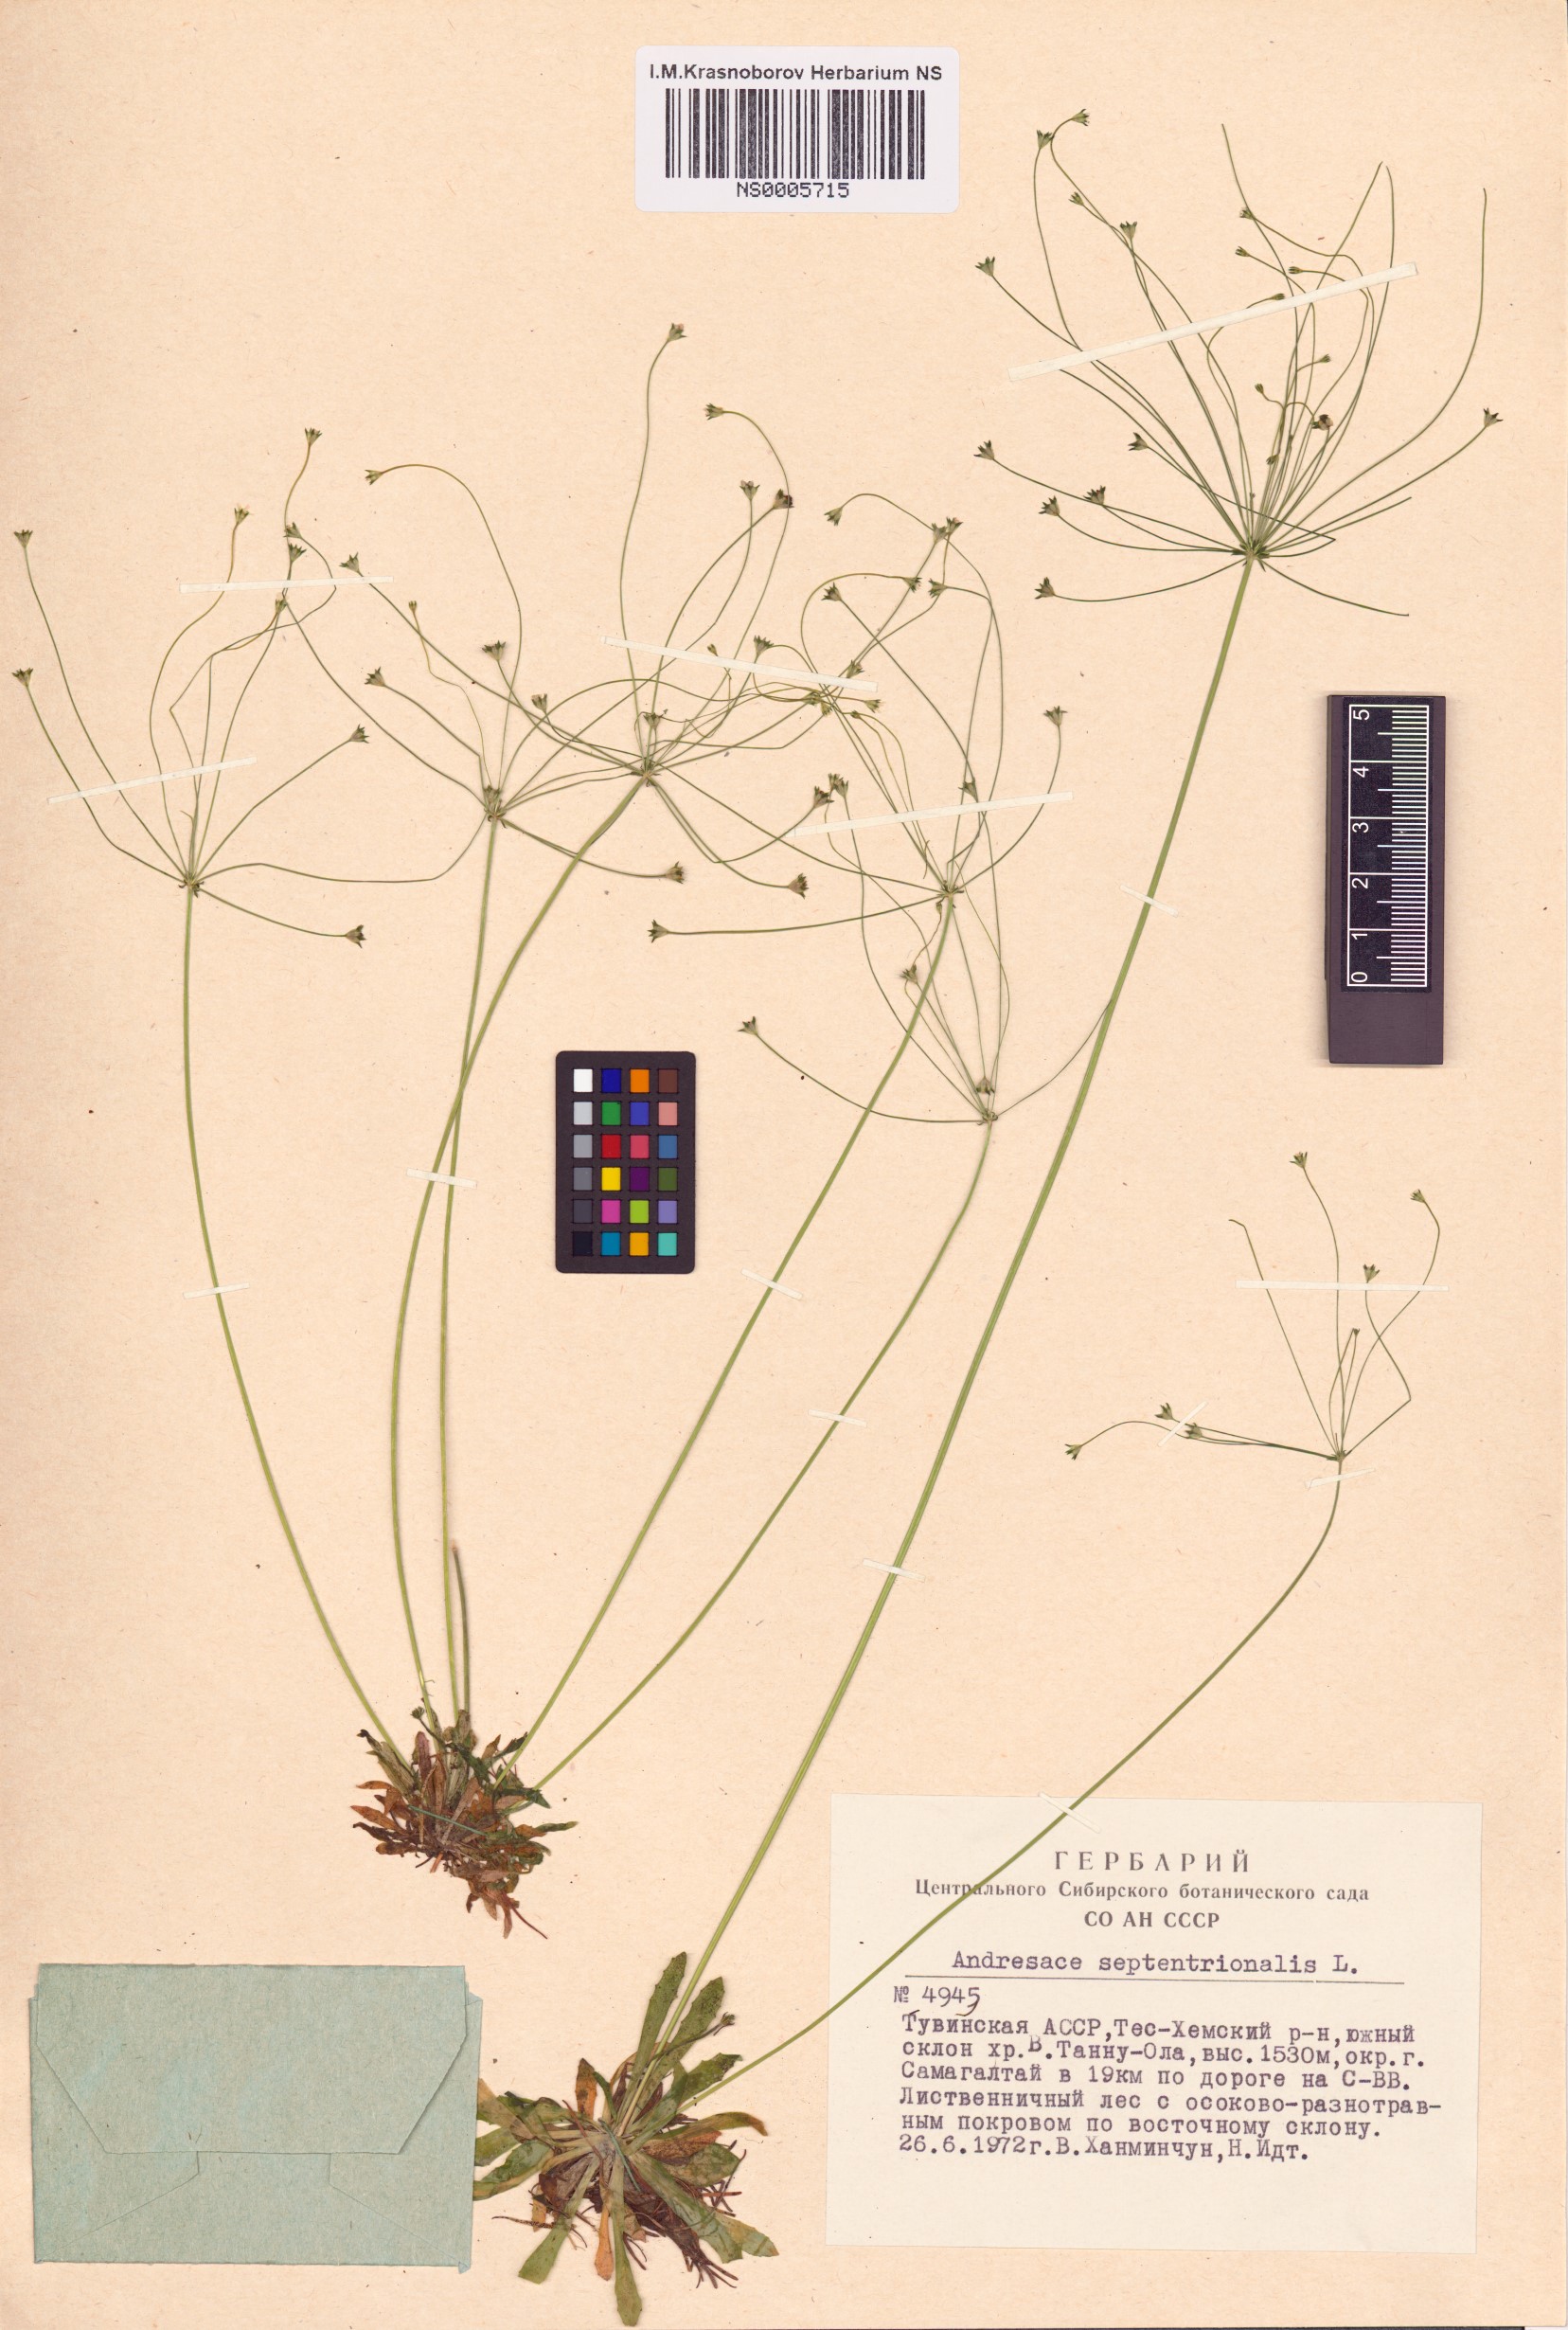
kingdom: Plantae
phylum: Tracheophyta
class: Magnoliopsida
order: Ericales
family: Primulaceae
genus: Androsace
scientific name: Androsace septentrionalis
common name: Hairy northern fairy-candelabra
